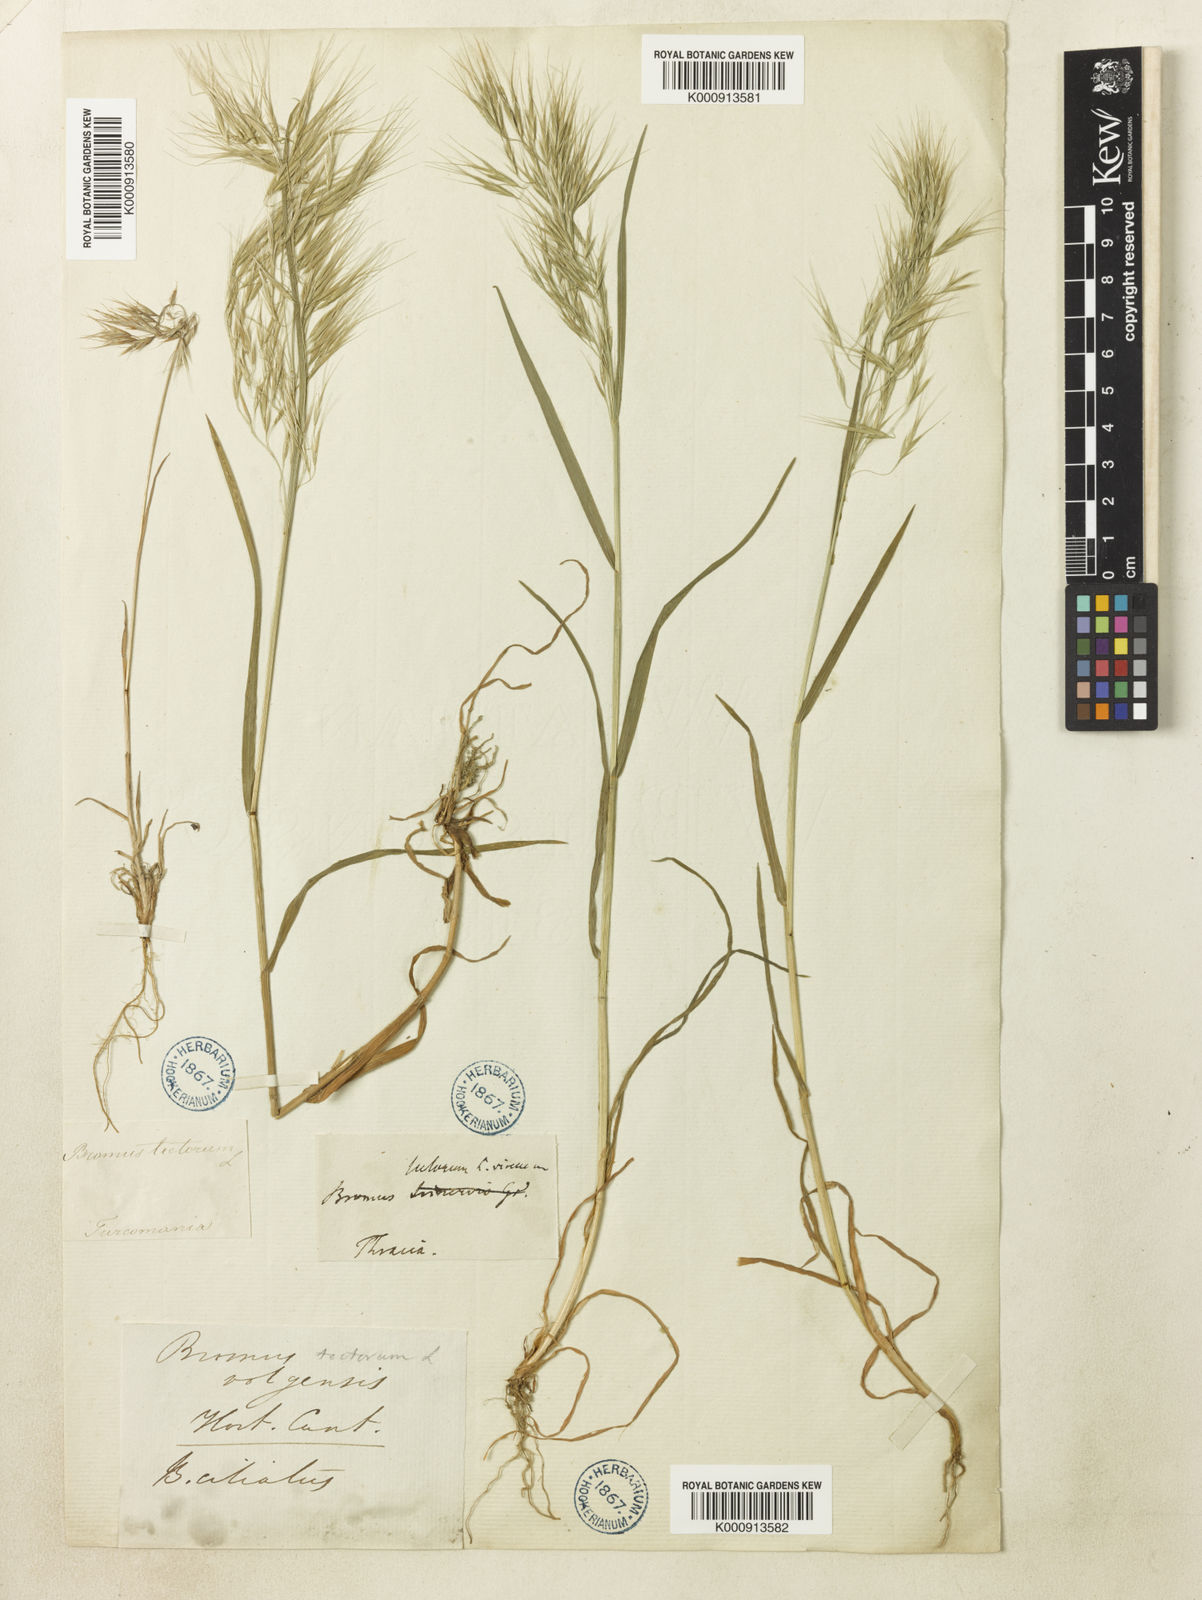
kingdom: Plantae
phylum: Tracheophyta
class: Liliopsida
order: Poales
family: Poaceae
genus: Bromus
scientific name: Bromus tectorum
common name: Cheatgrass
